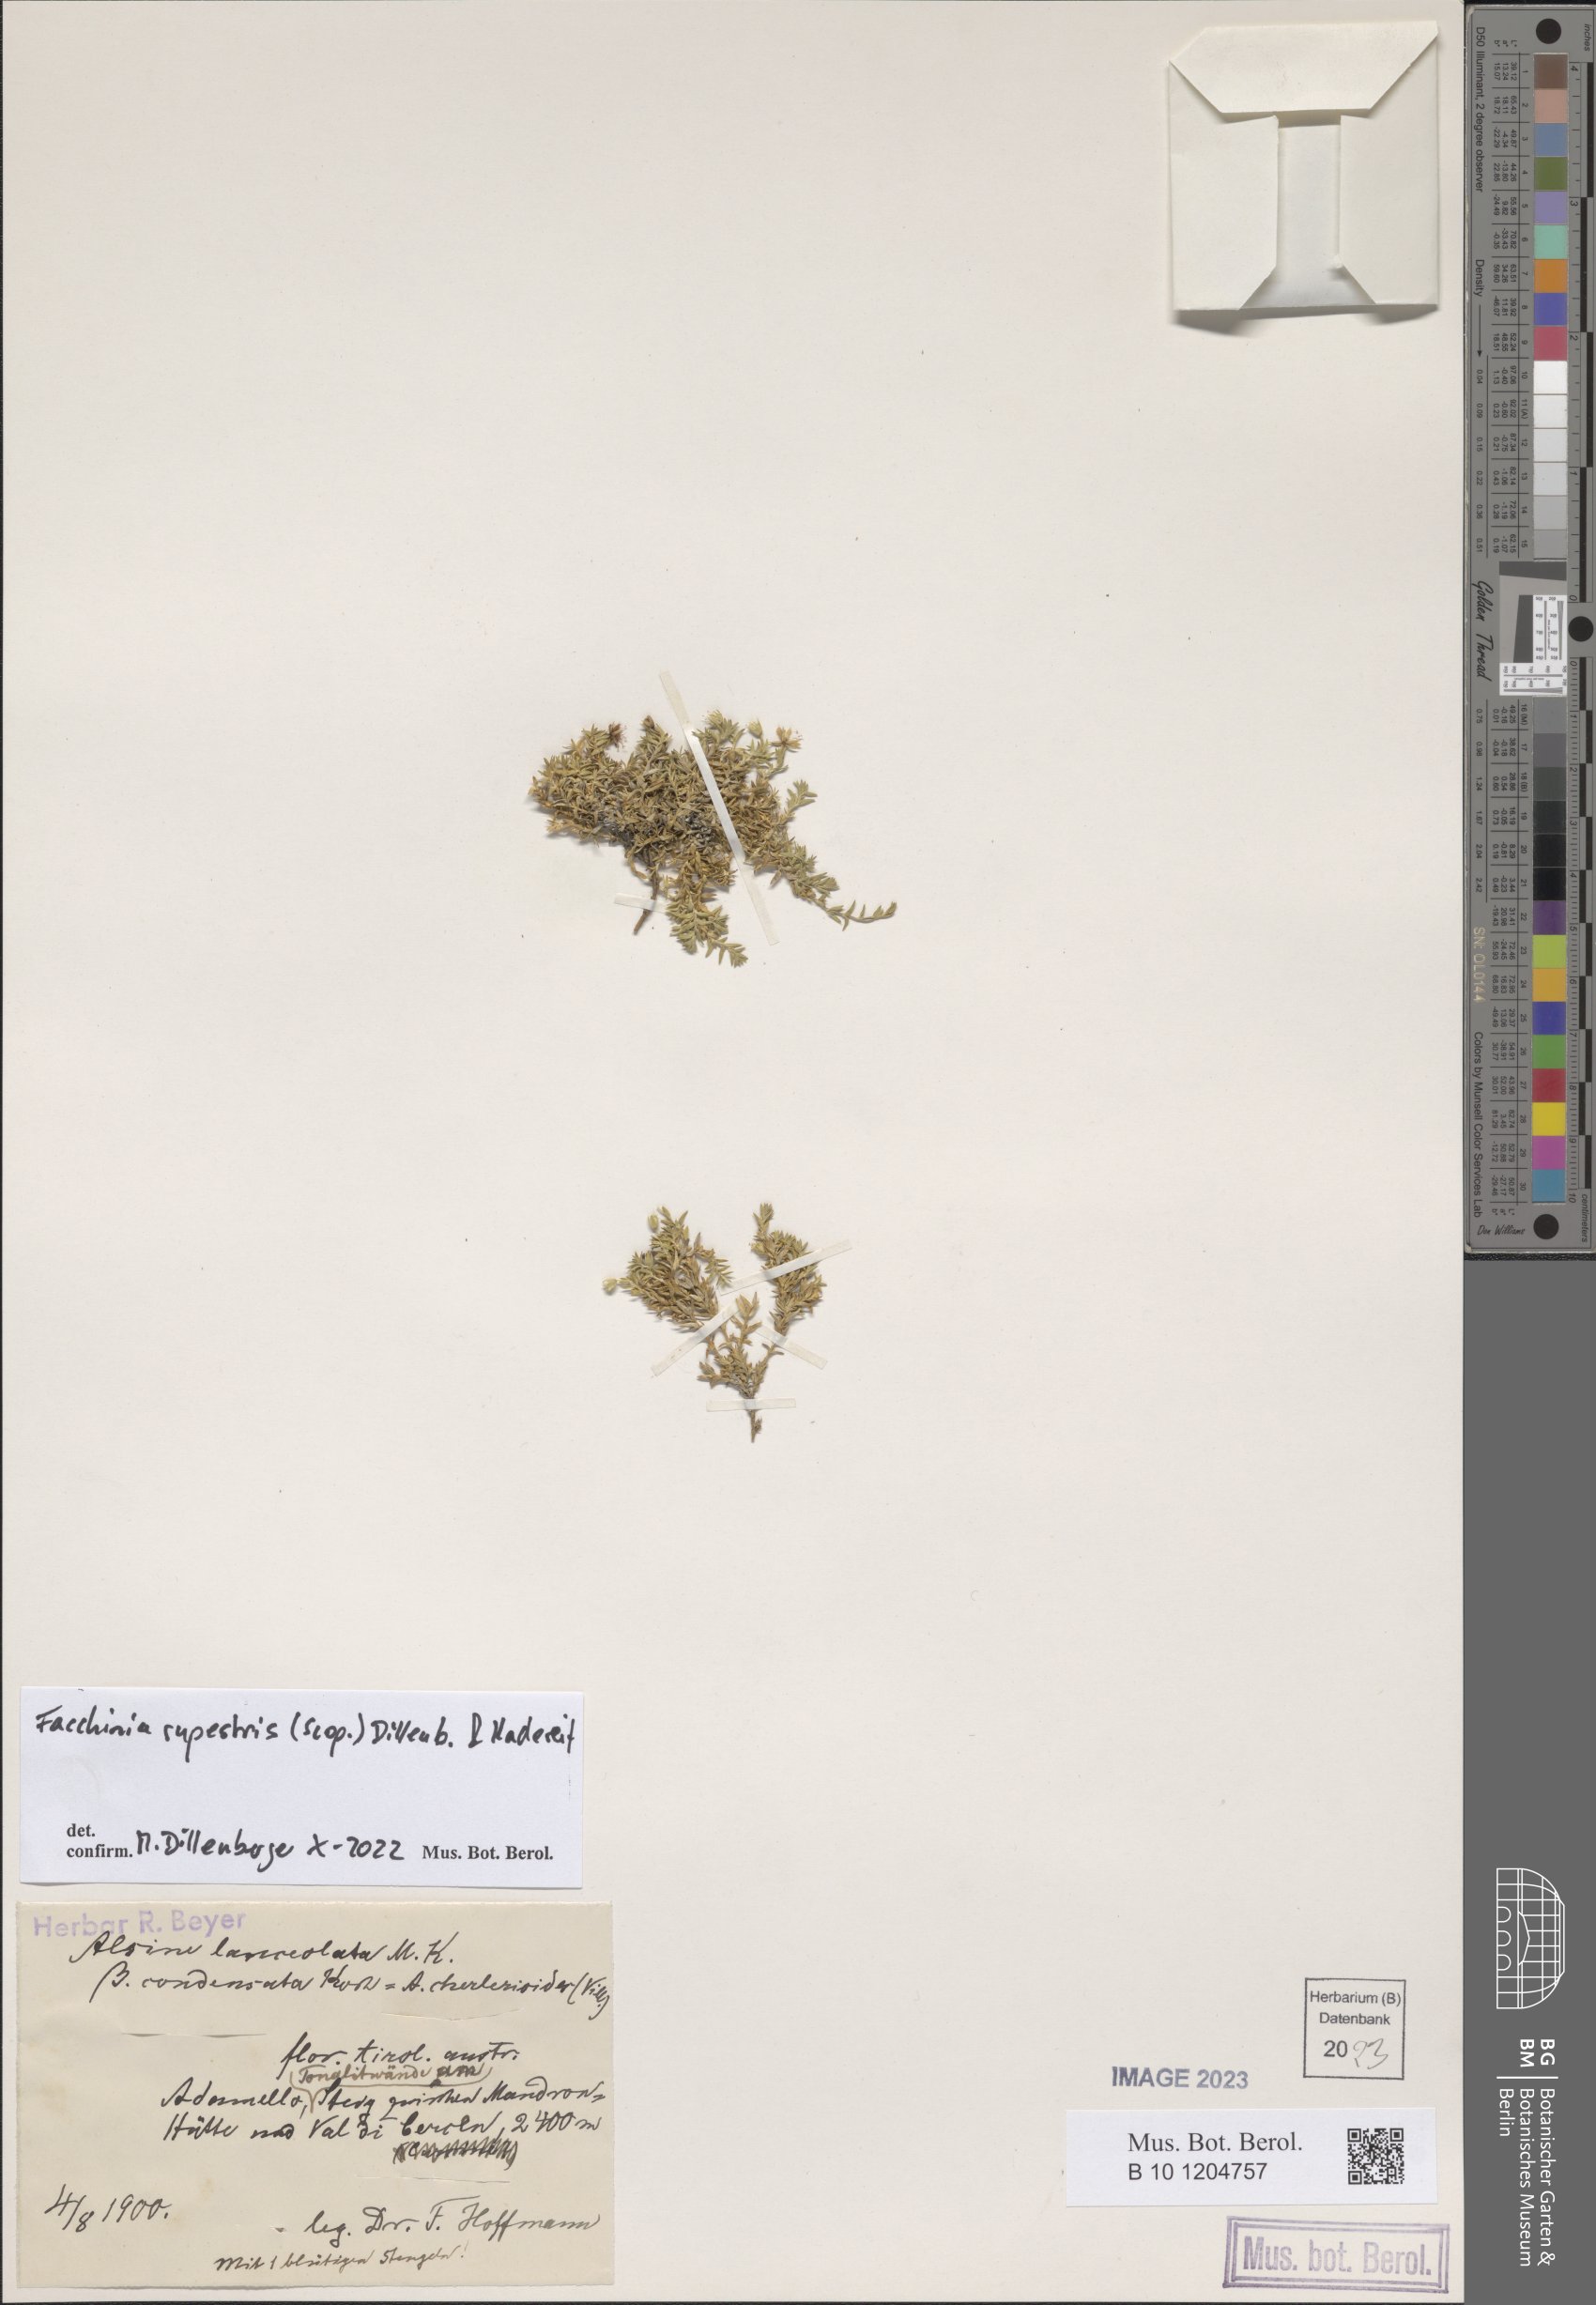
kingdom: Plantae
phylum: Tracheophyta
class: Magnoliopsida
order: Caryophyllales
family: Caryophyllaceae
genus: Facchinia
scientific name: Facchinia rupestris
